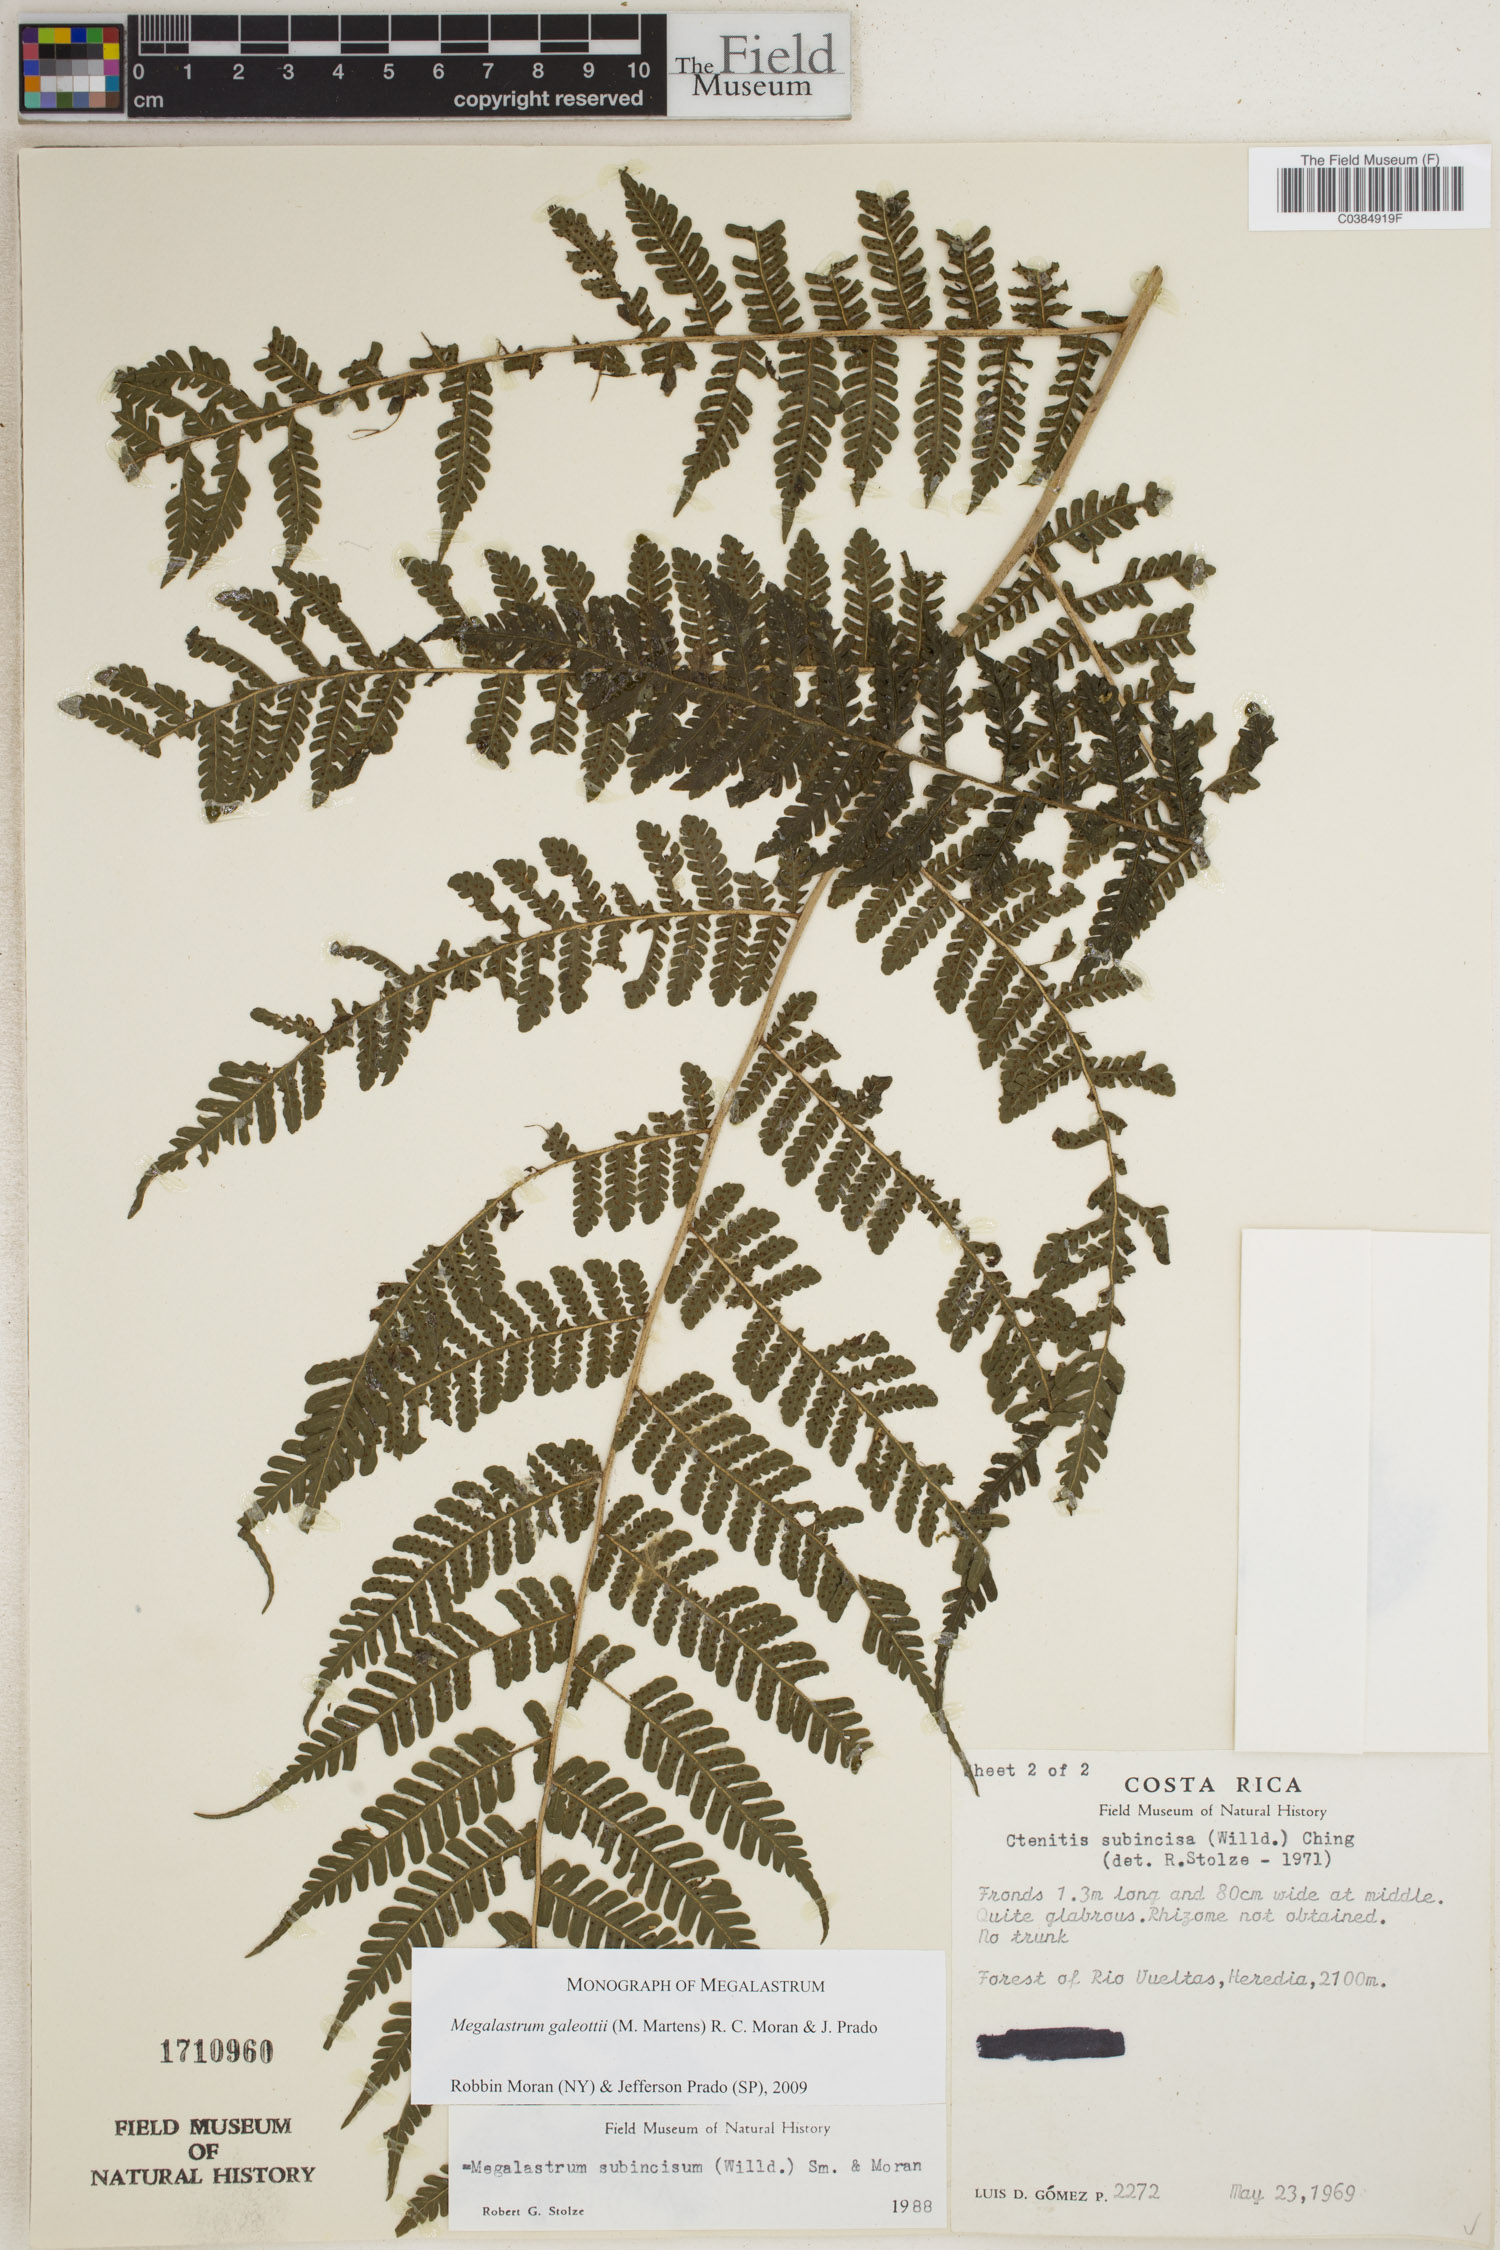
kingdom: Plantae
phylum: Tracheophyta
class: Polypodiopsida
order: Polypodiales
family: Dryopteridaceae
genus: Megalastrum
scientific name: Megalastrum galeottii
